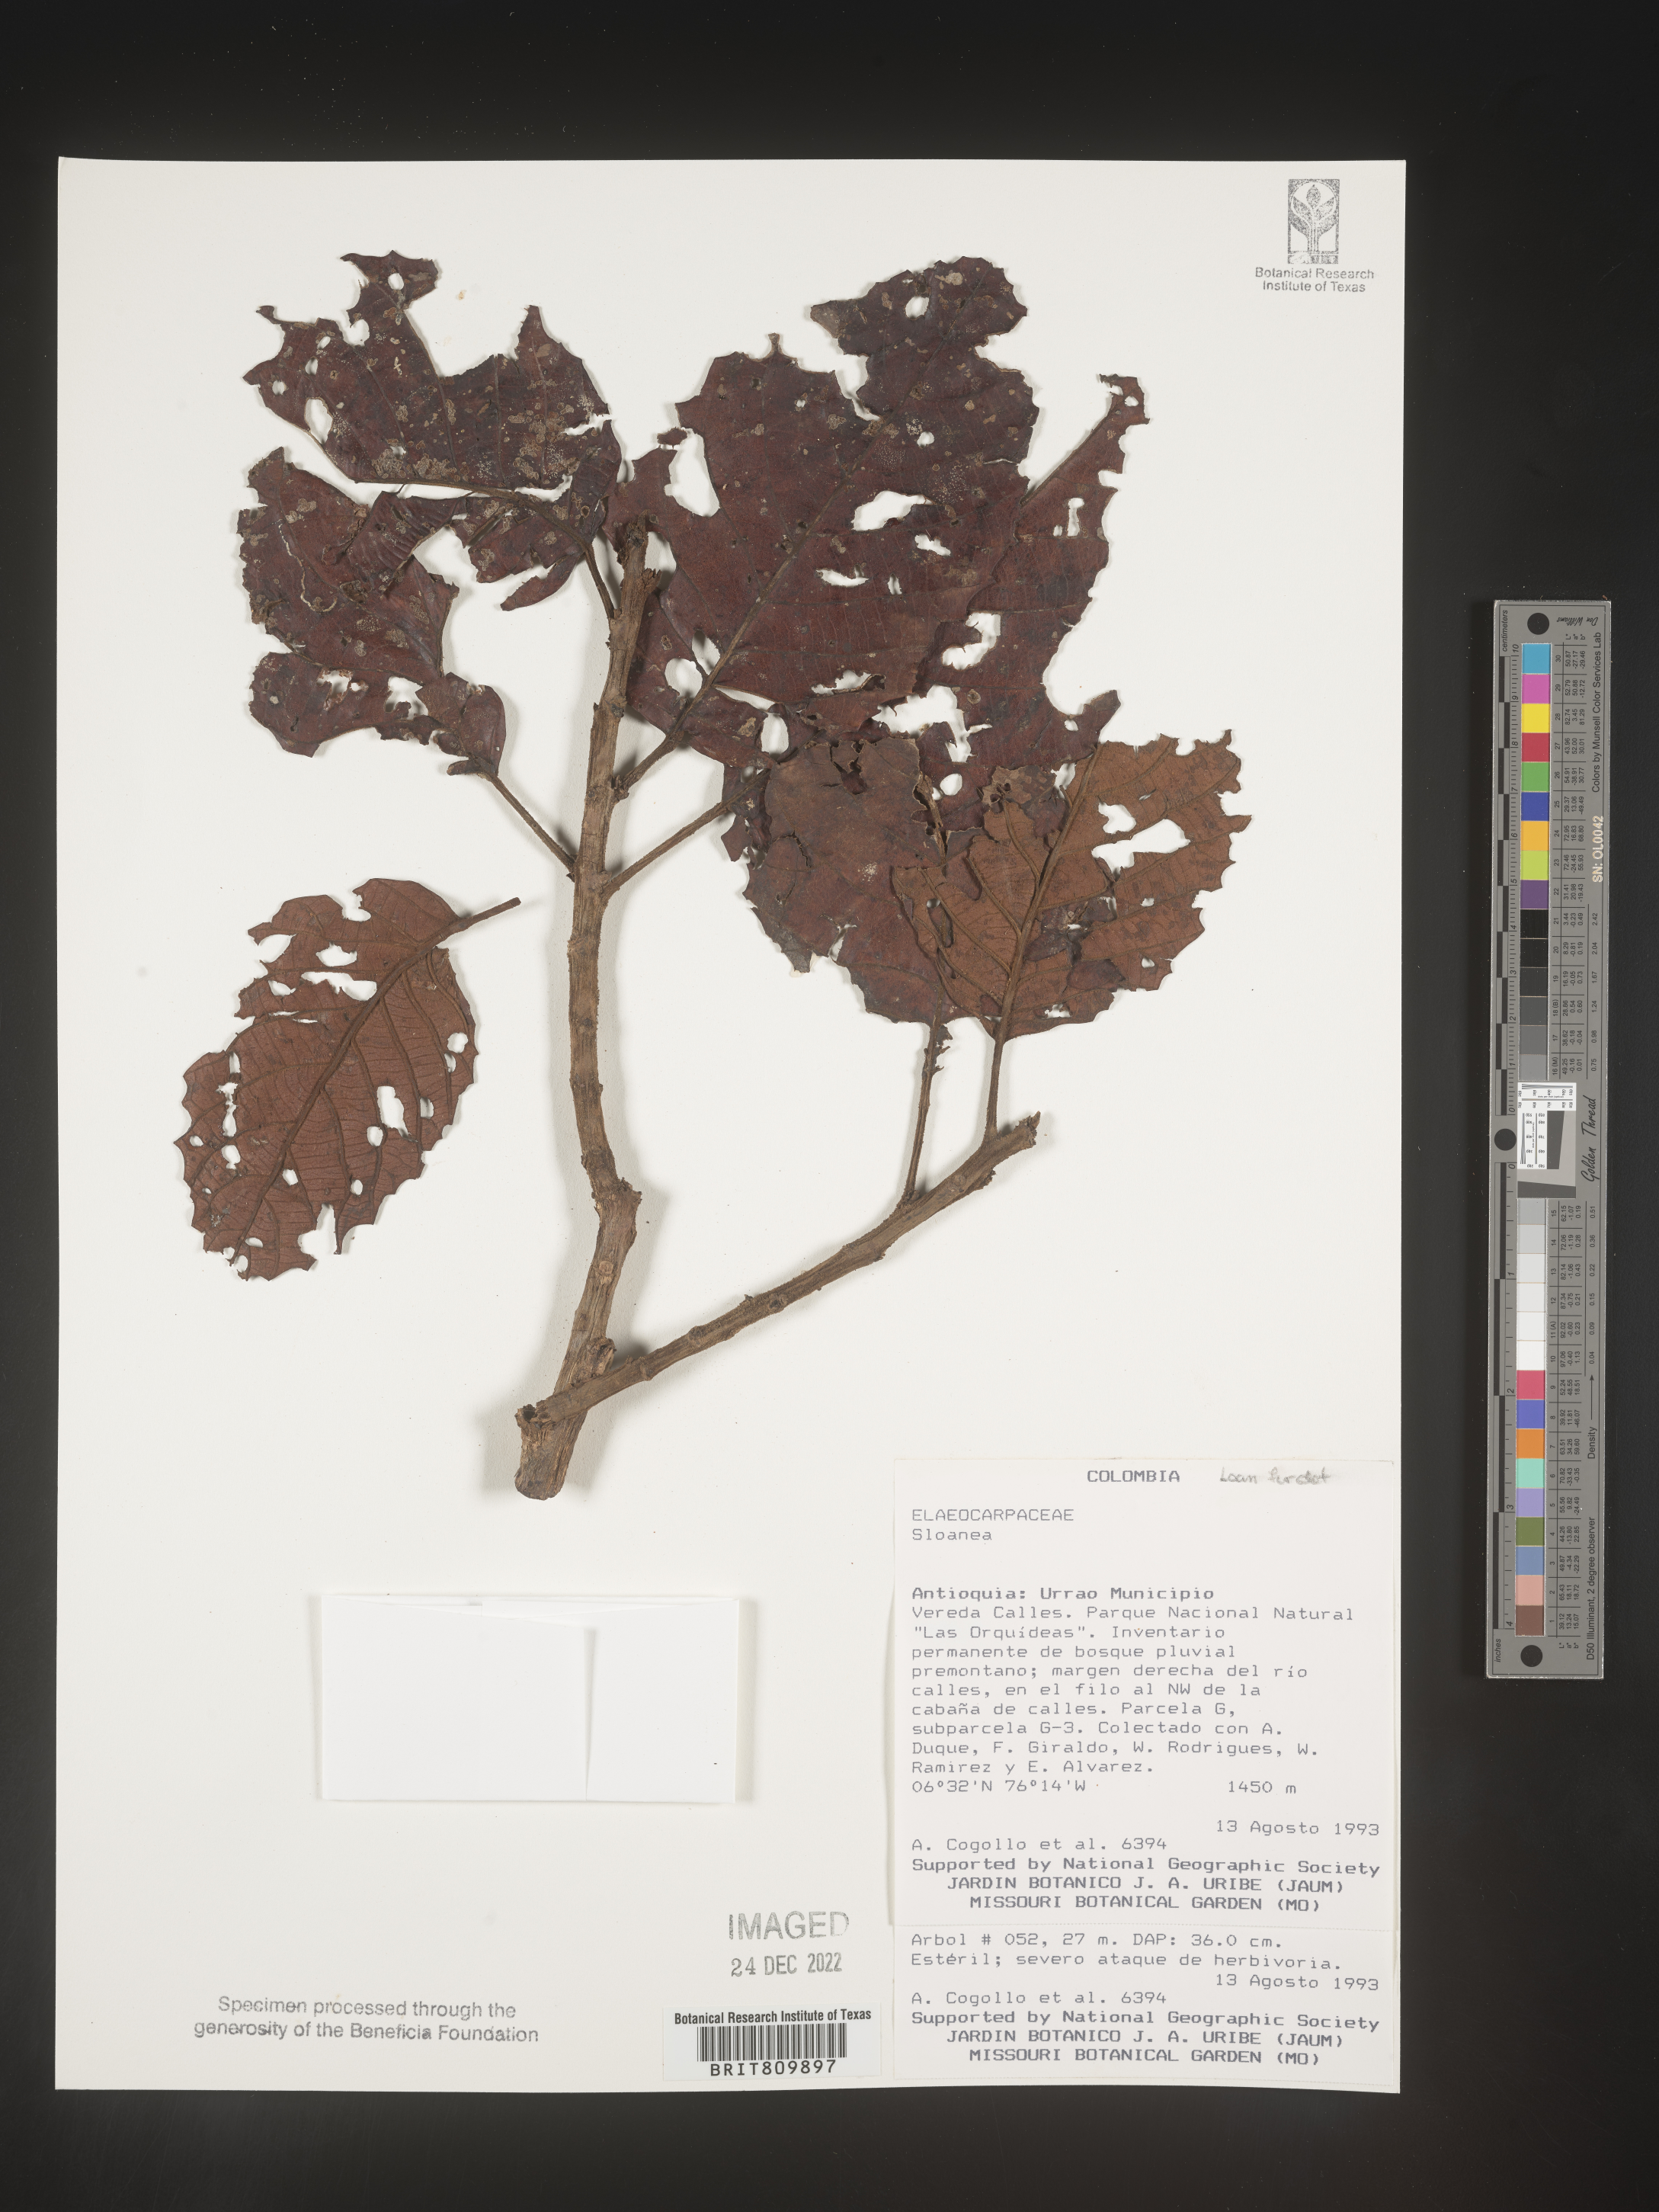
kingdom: Plantae
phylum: Tracheophyta
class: Magnoliopsida
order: Oxalidales
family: Elaeocarpaceae
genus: Sloanea
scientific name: Sloanea
